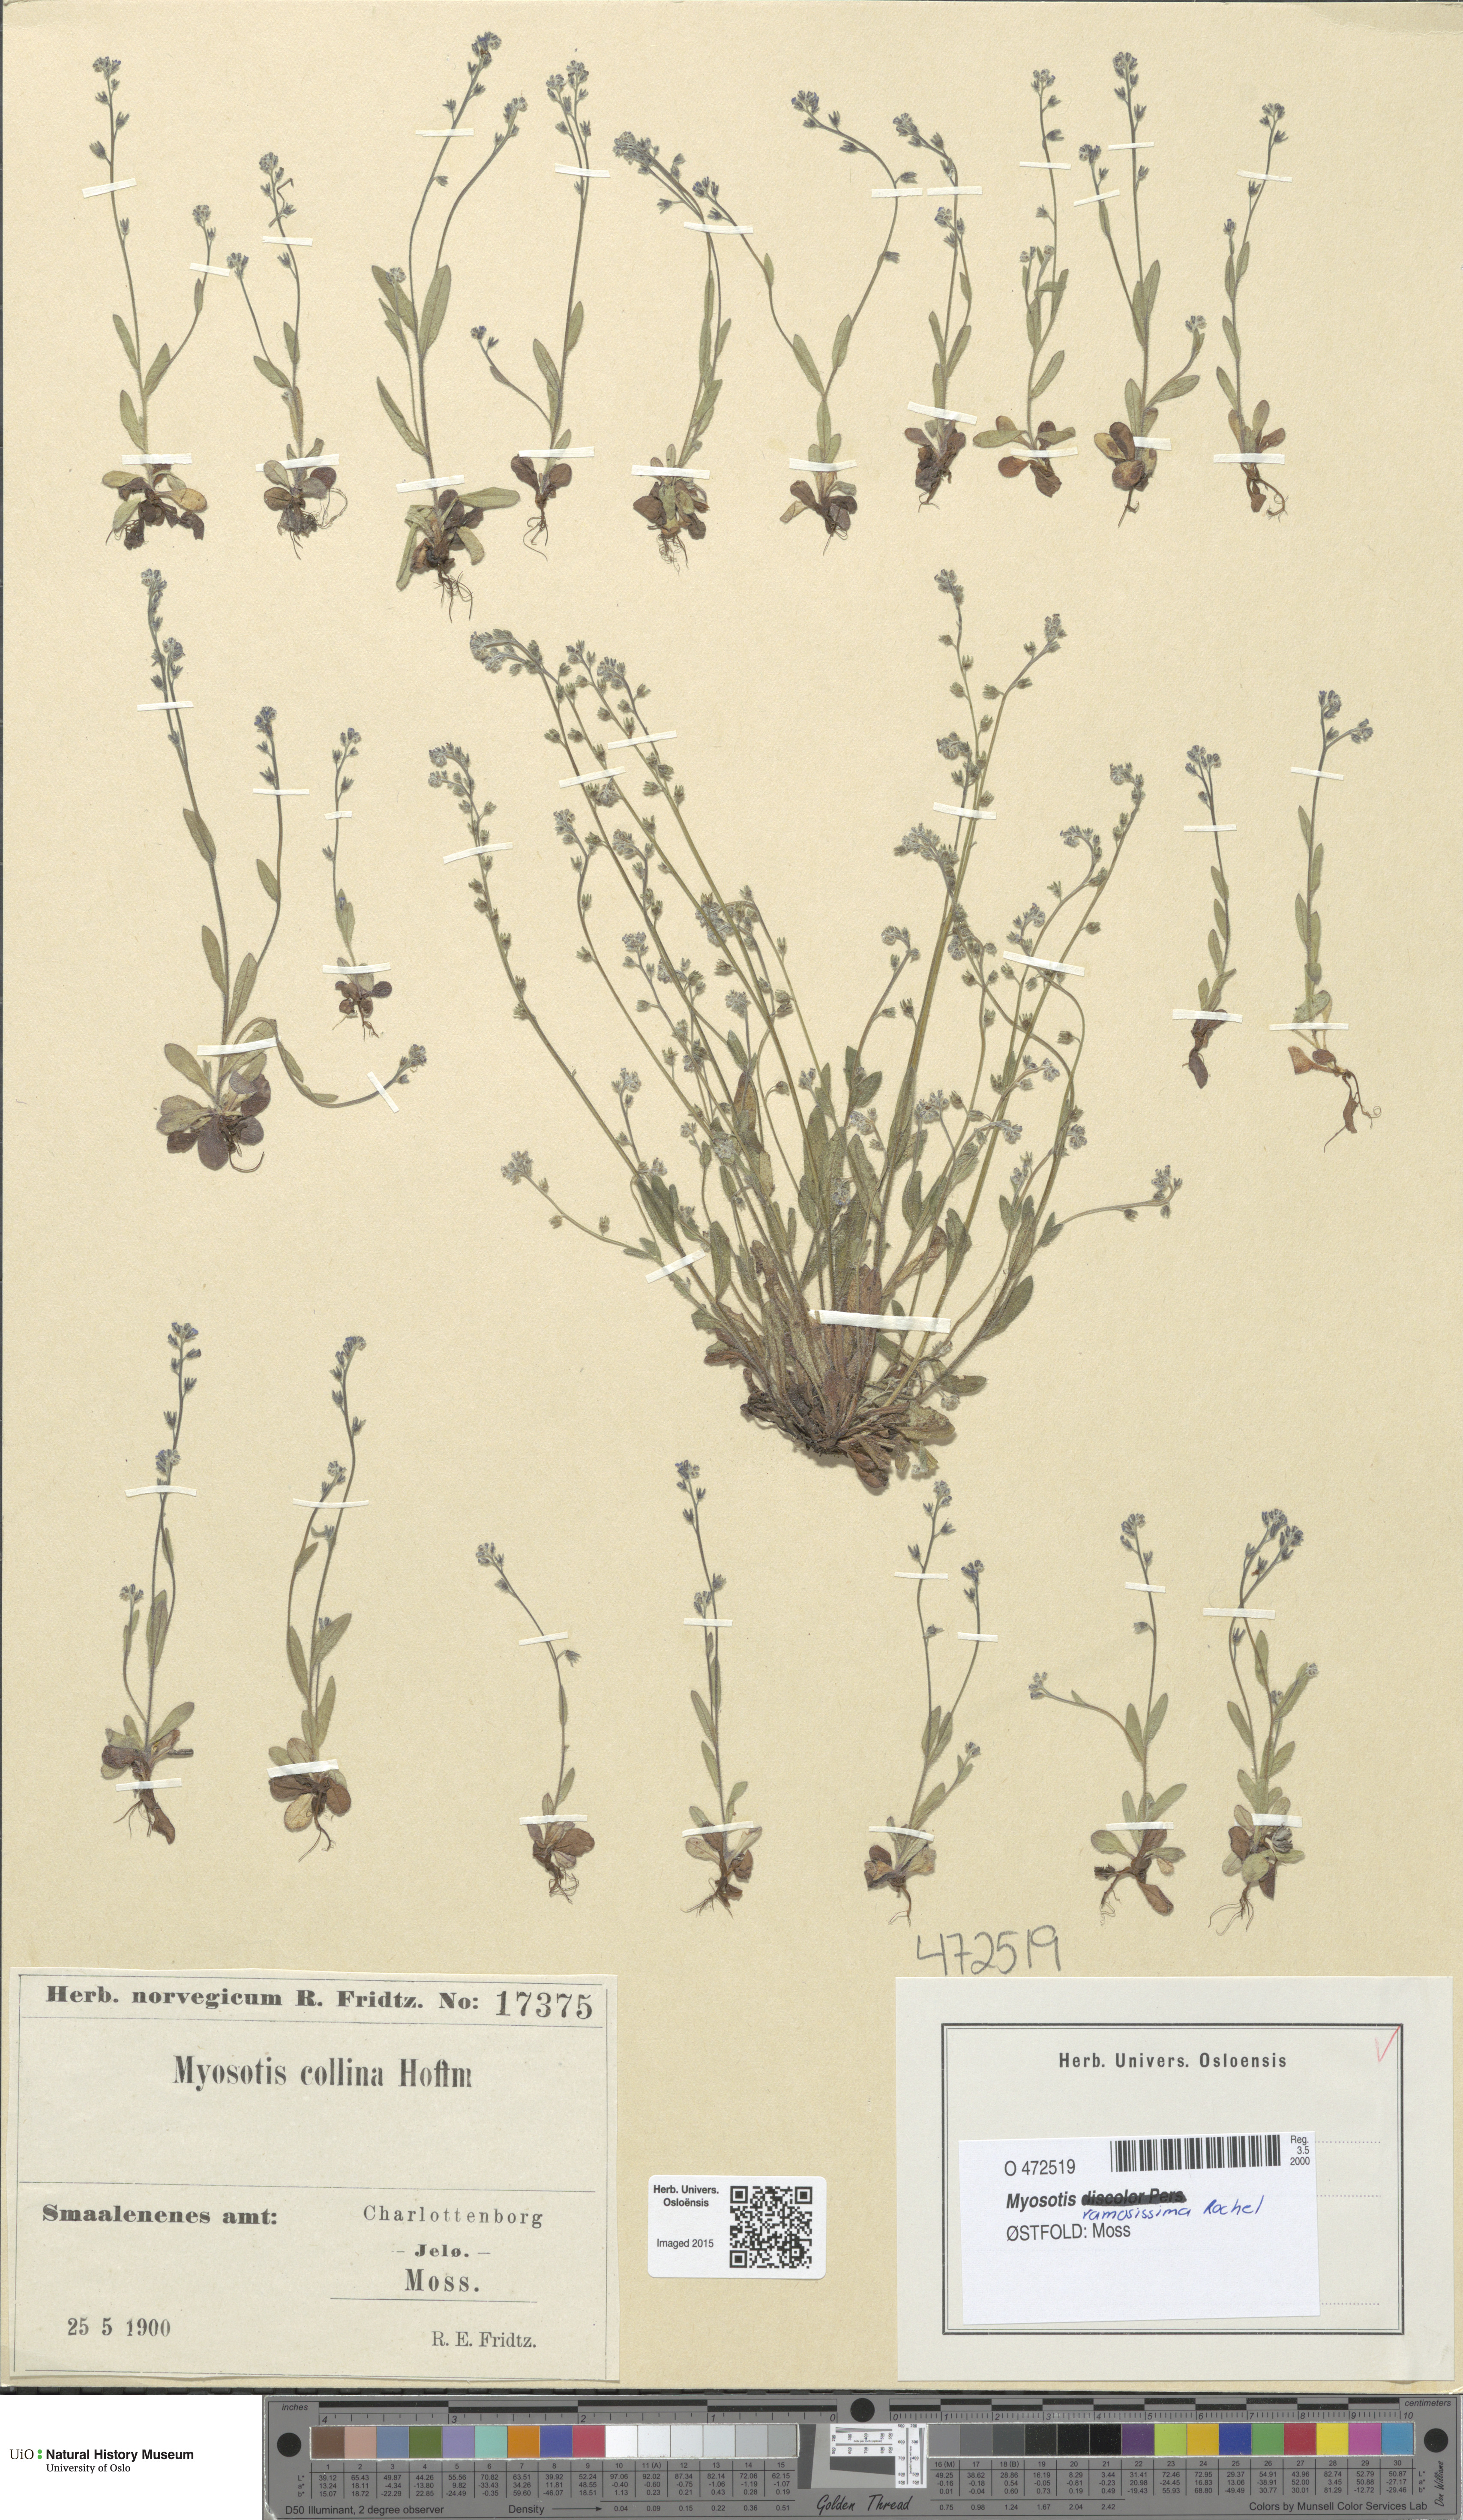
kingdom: Plantae
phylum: Tracheophyta
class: Magnoliopsida
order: Boraginales
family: Boraginaceae
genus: Myosotis
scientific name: Myosotis ramosissima
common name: Early forget-me-not
